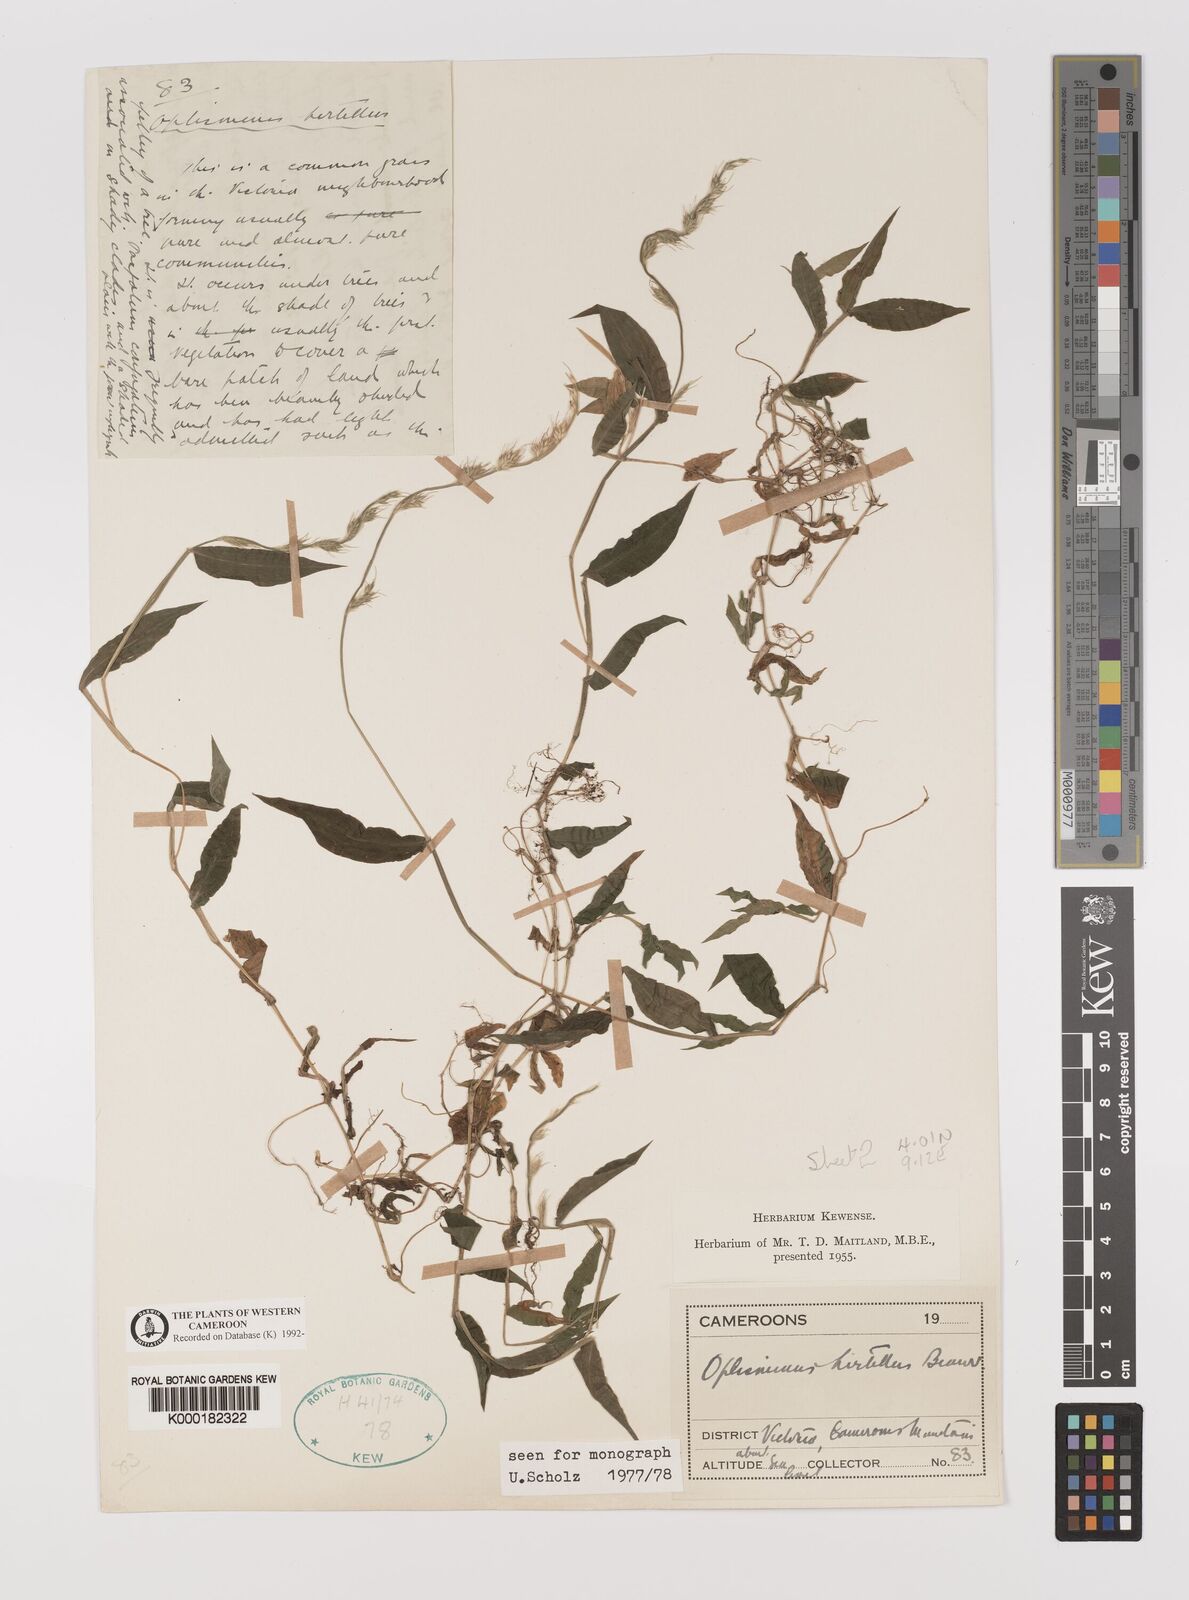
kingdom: Plantae
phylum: Tracheophyta
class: Liliopsida
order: Poales
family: Poaceae
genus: Oplismenus
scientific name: Oplismenus hirtellus
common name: Basketgrass
